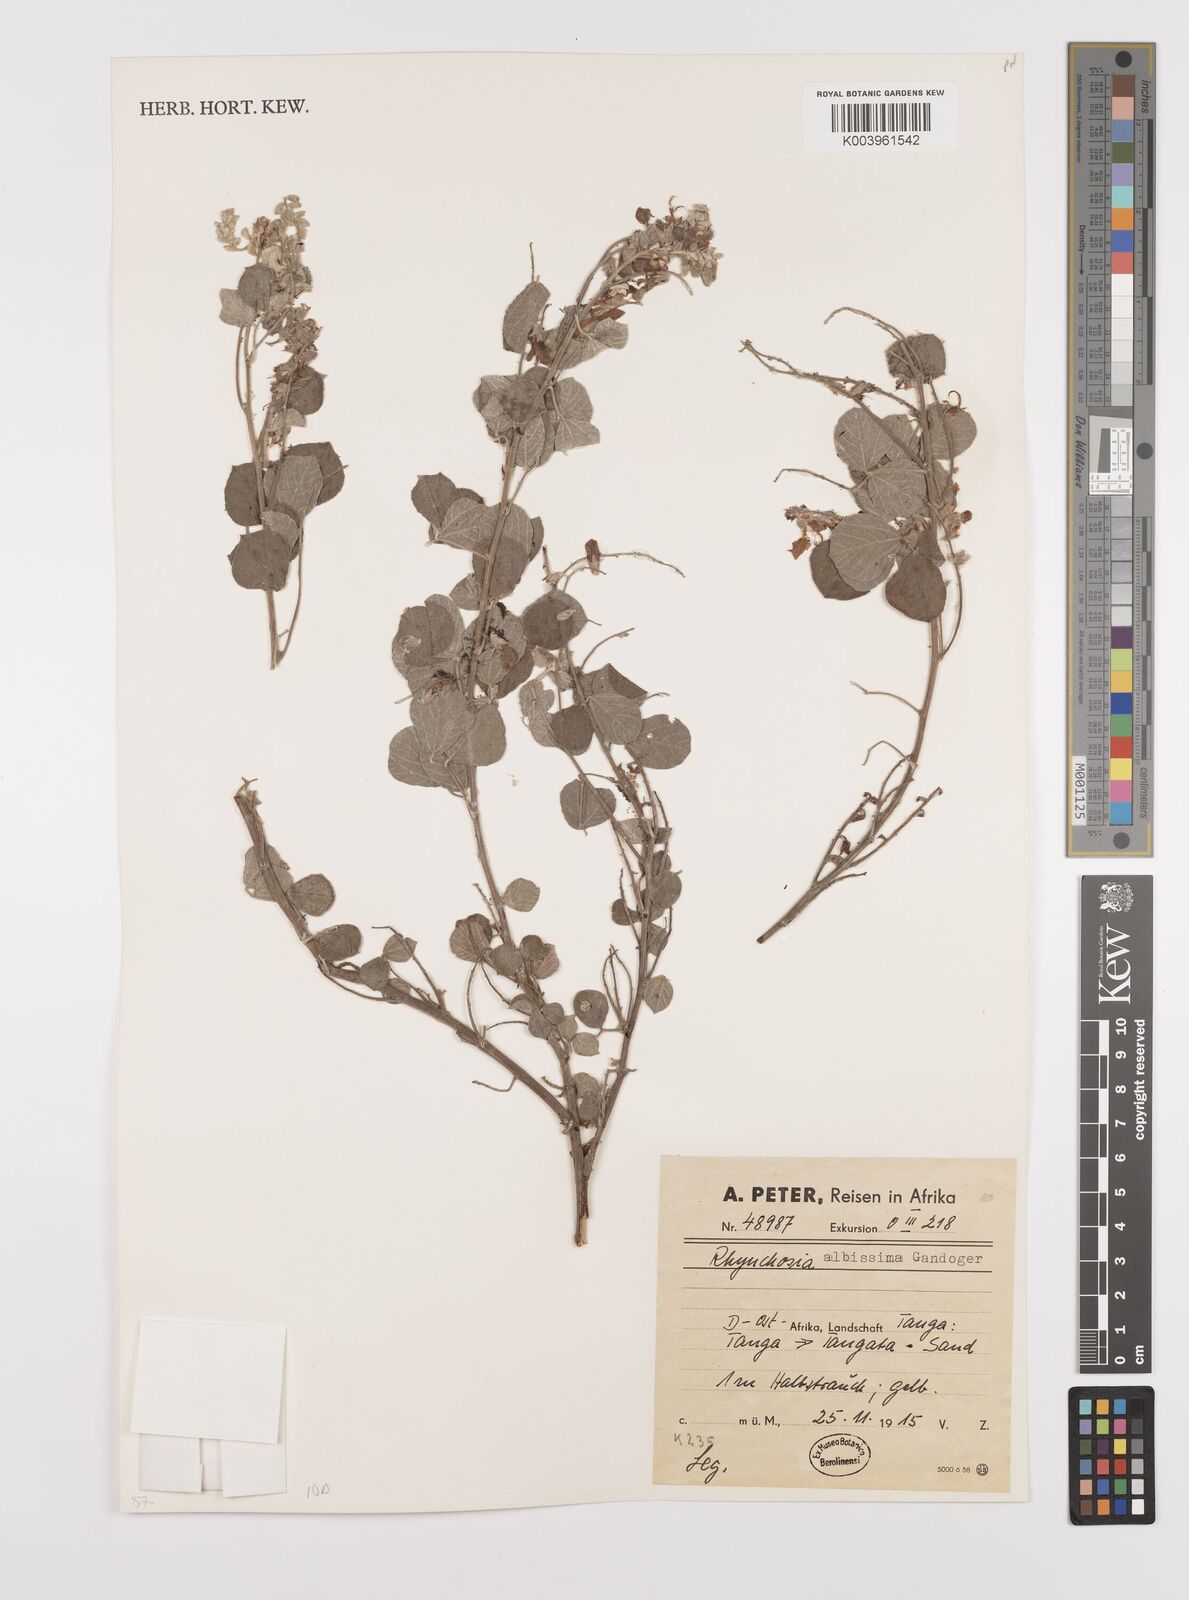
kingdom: Plantae
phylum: Tracheophyta
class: Magnoliopsida
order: Fabales
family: Fabaceae
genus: Rhynchosia
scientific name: Rhynchosia albissima
